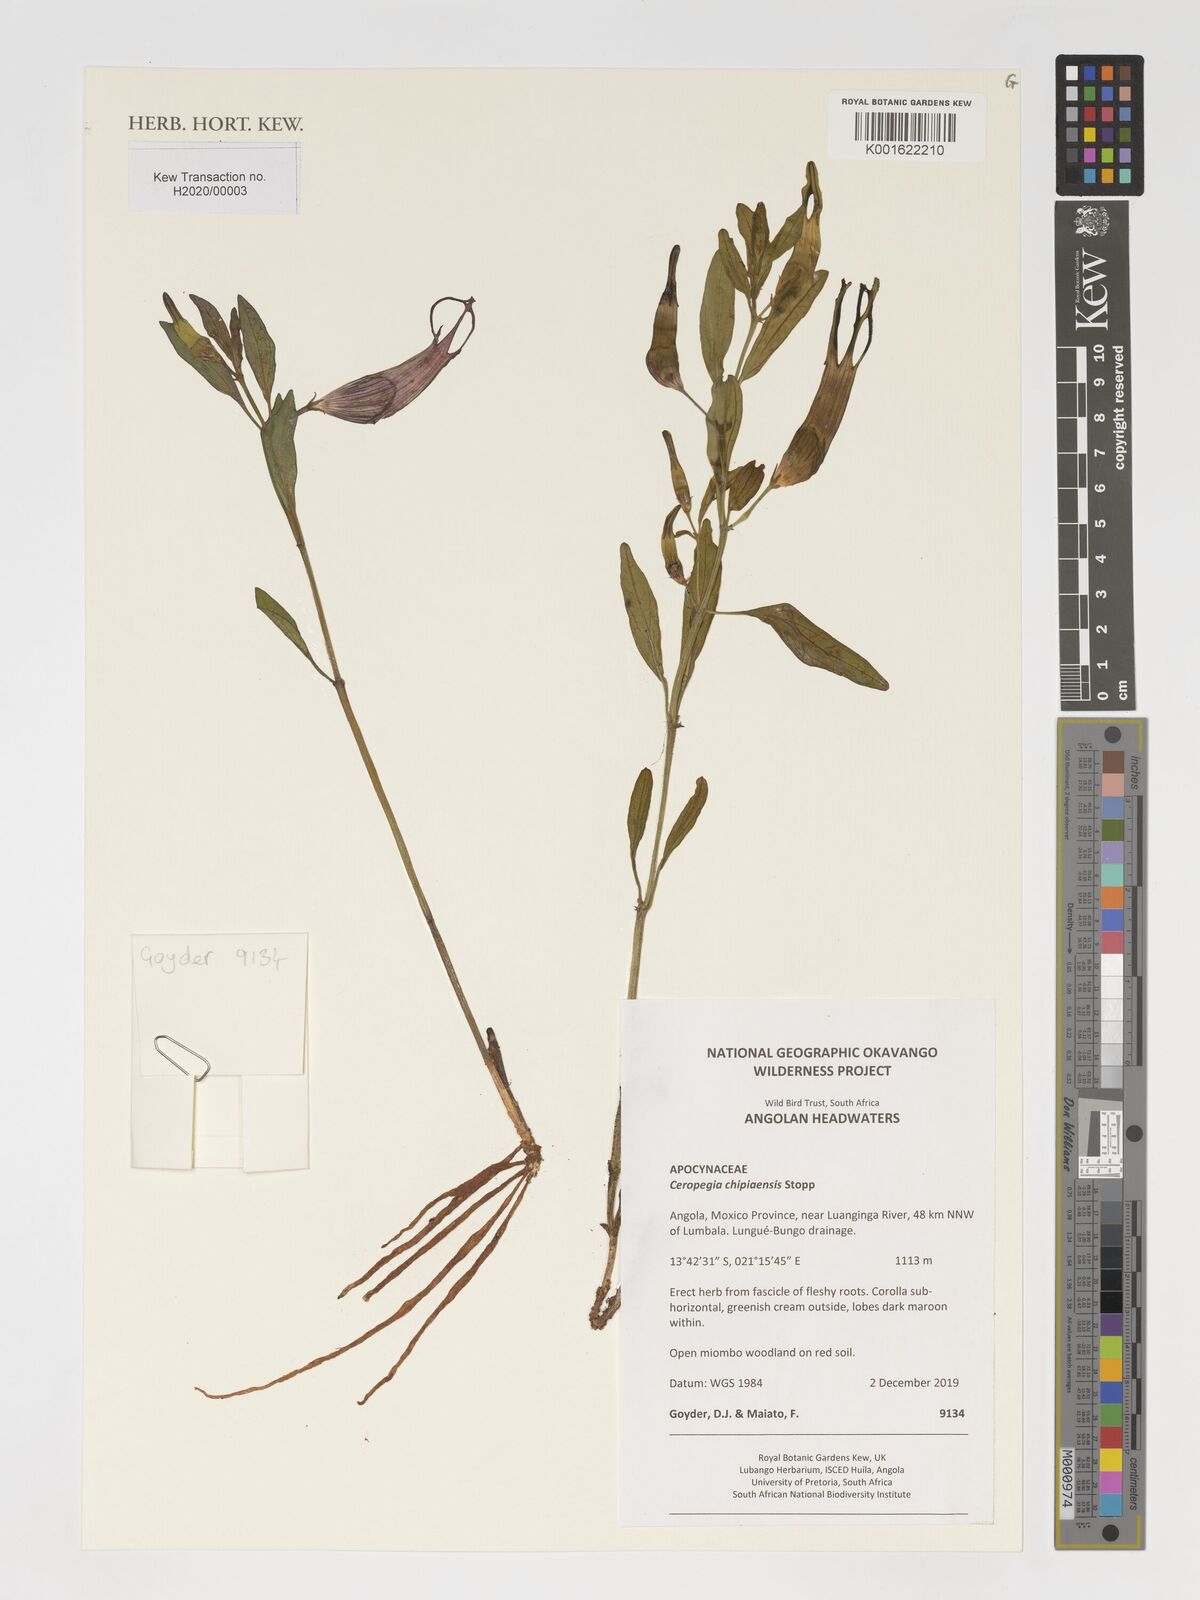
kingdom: Plantae
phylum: Tracheophyta
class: Magnoliopsida
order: Gentianales
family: Apocynaceae
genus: Ceropegia
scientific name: Ceropegia umbraticola
